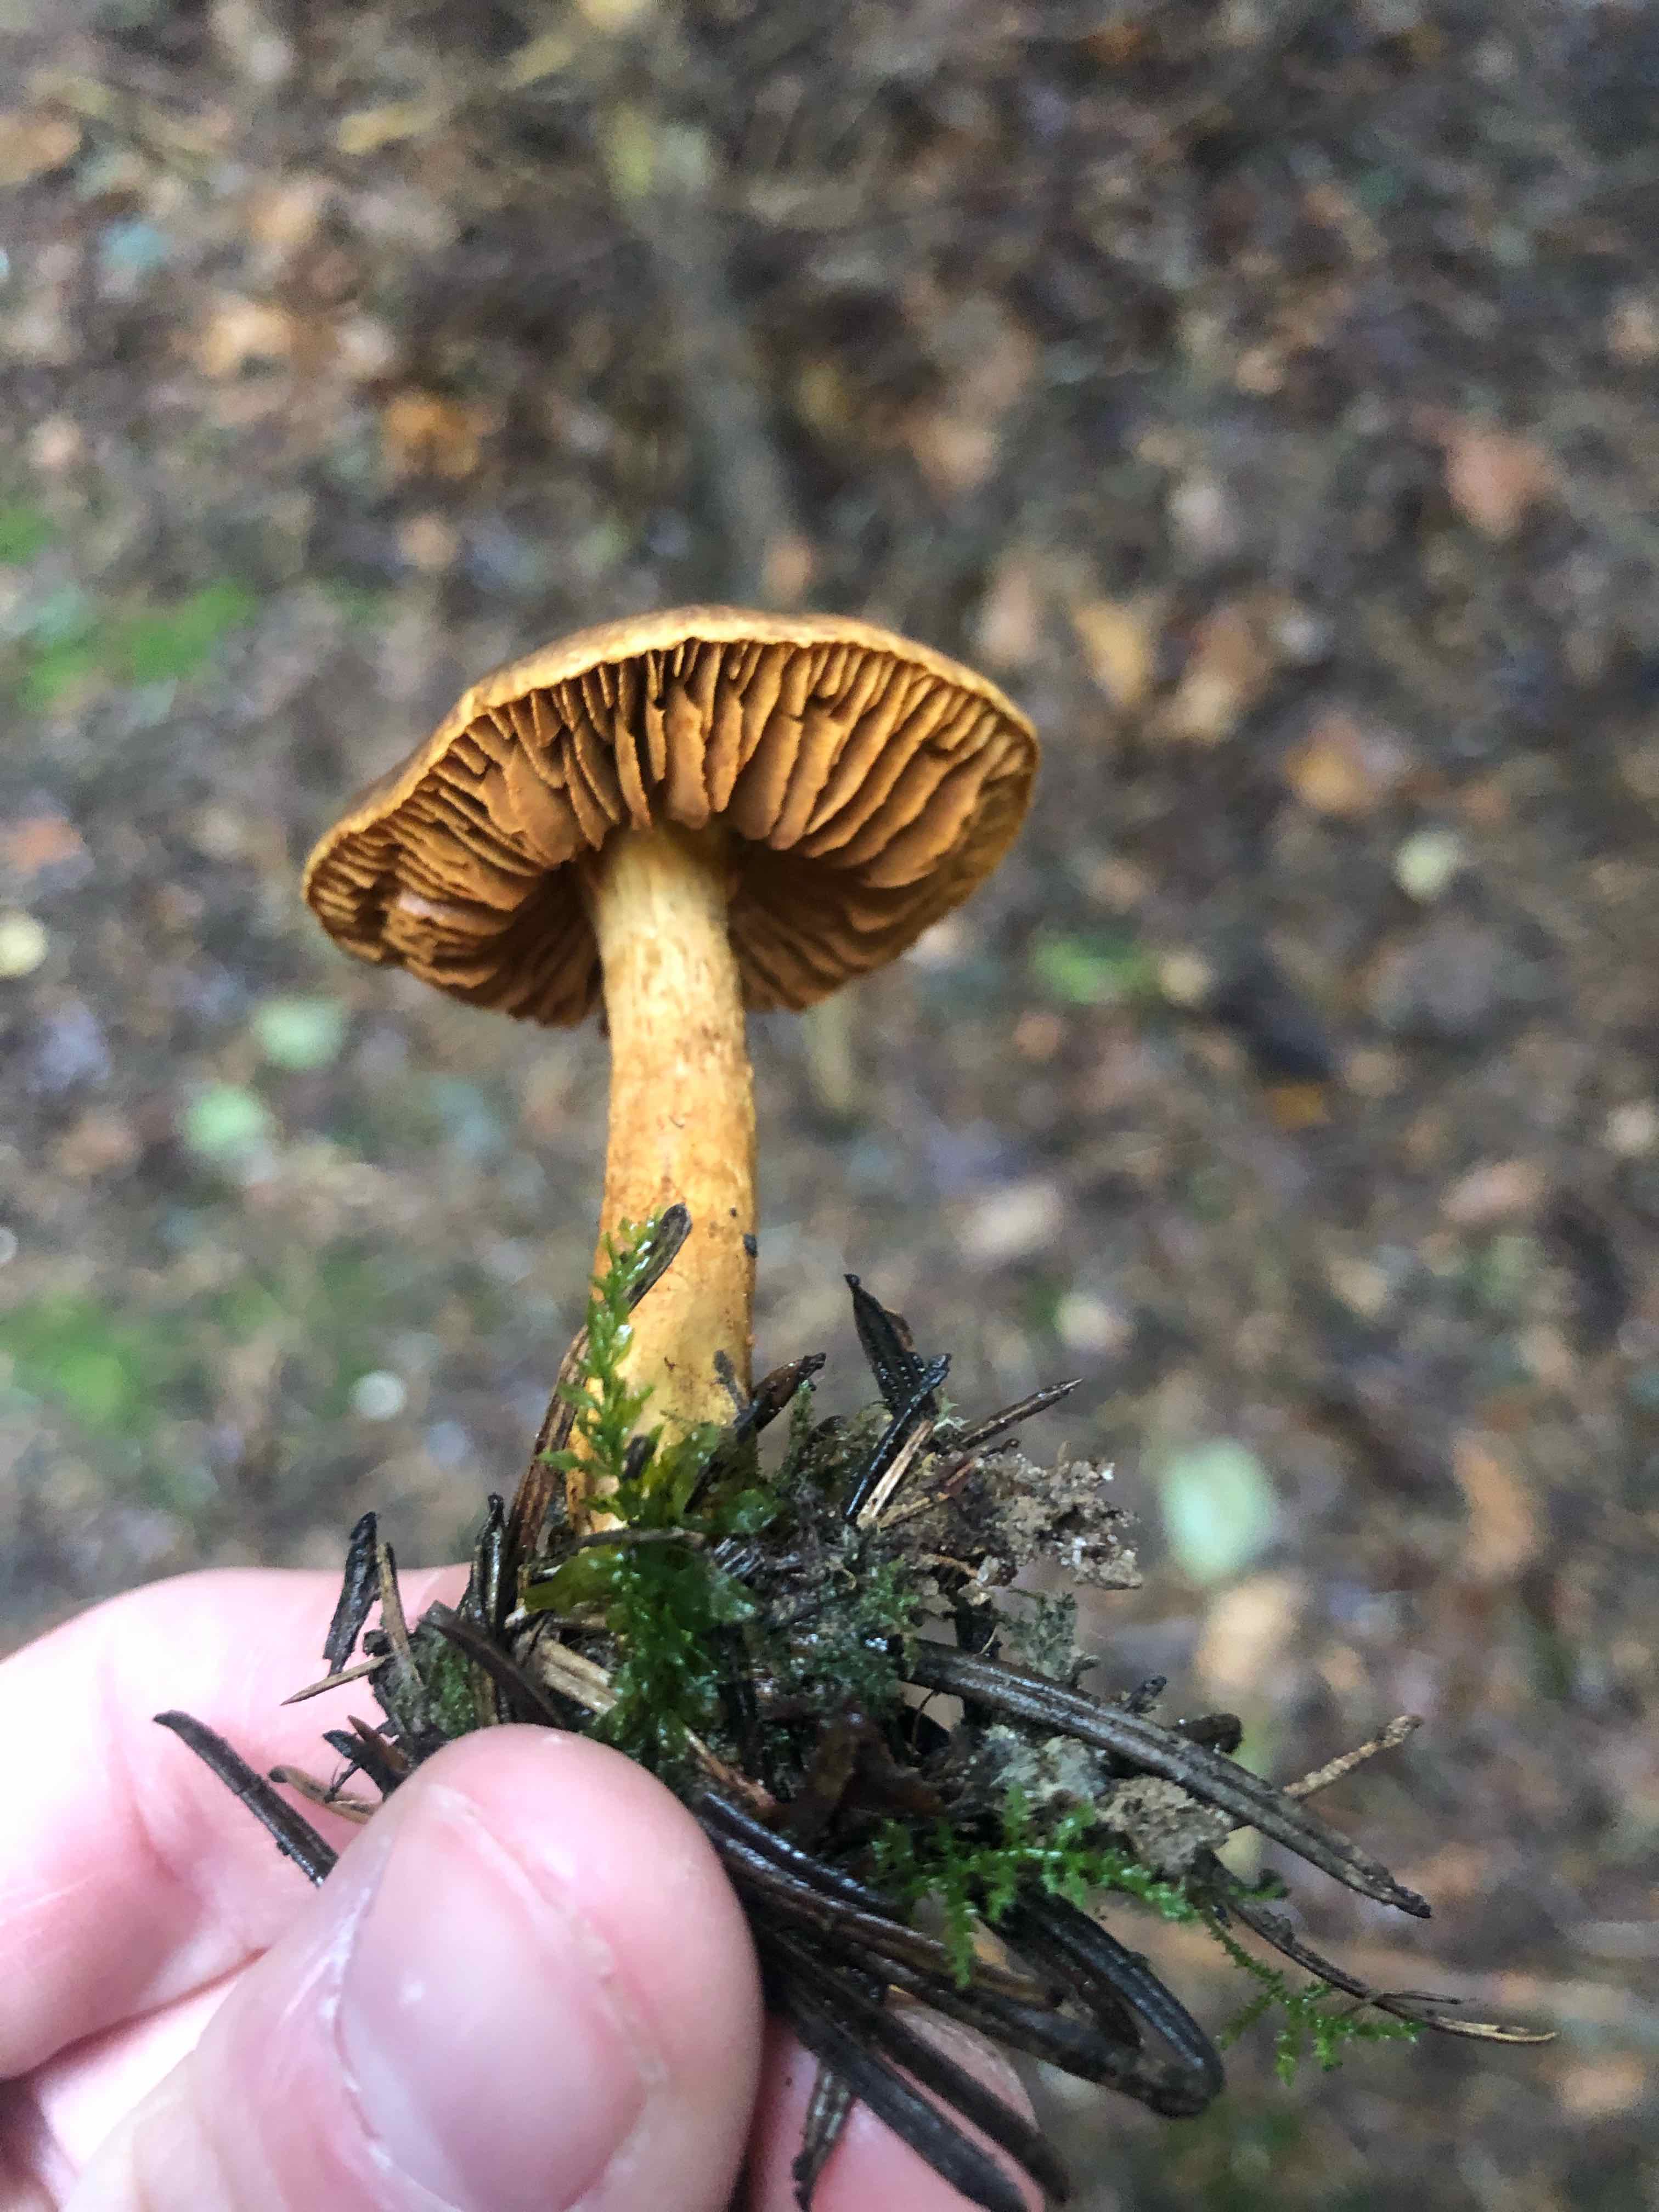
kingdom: Fungi
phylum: Basidiomycota
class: Agaricomycetes
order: Agaricales
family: Cortinariaceae
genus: Cortinarius
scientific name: Cortinarius
